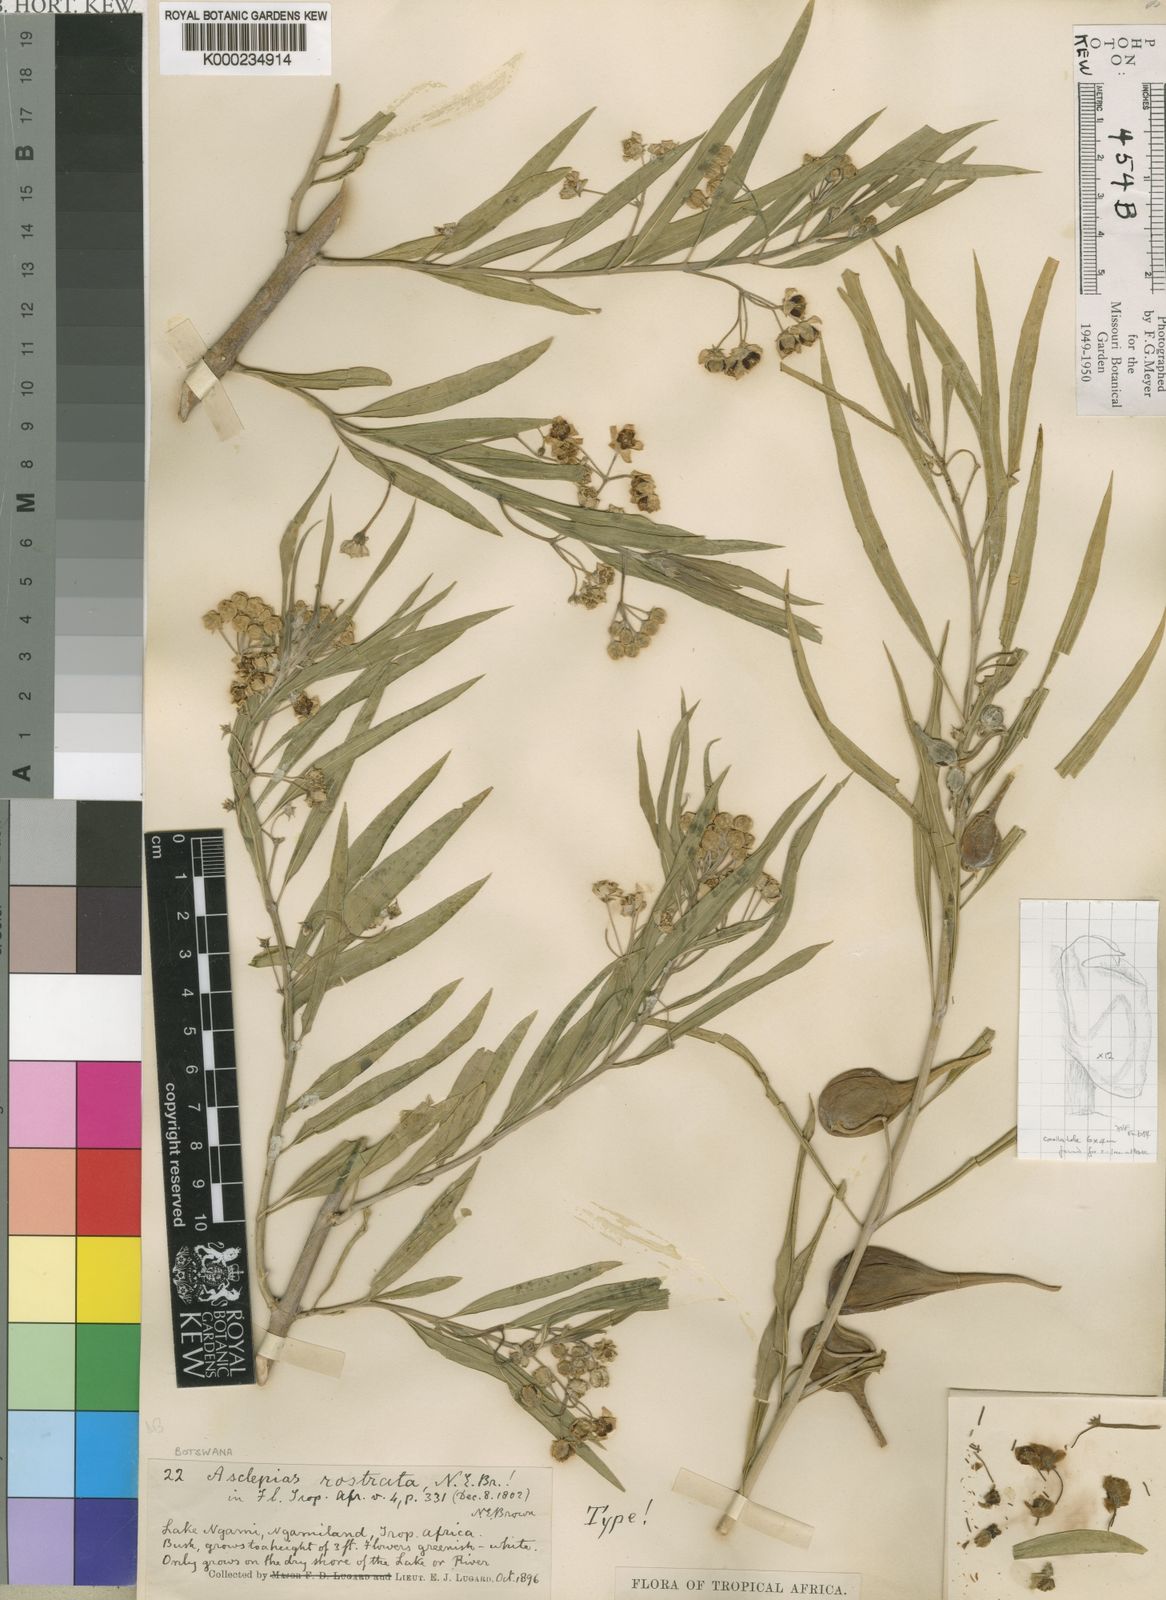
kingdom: Plantae
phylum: Tracheophyta
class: Magnoliopsida
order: Gentianales
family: Apocynaceae
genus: Gomphocarpus
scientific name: Gomphocarpus fruticosus
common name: Milkweed
